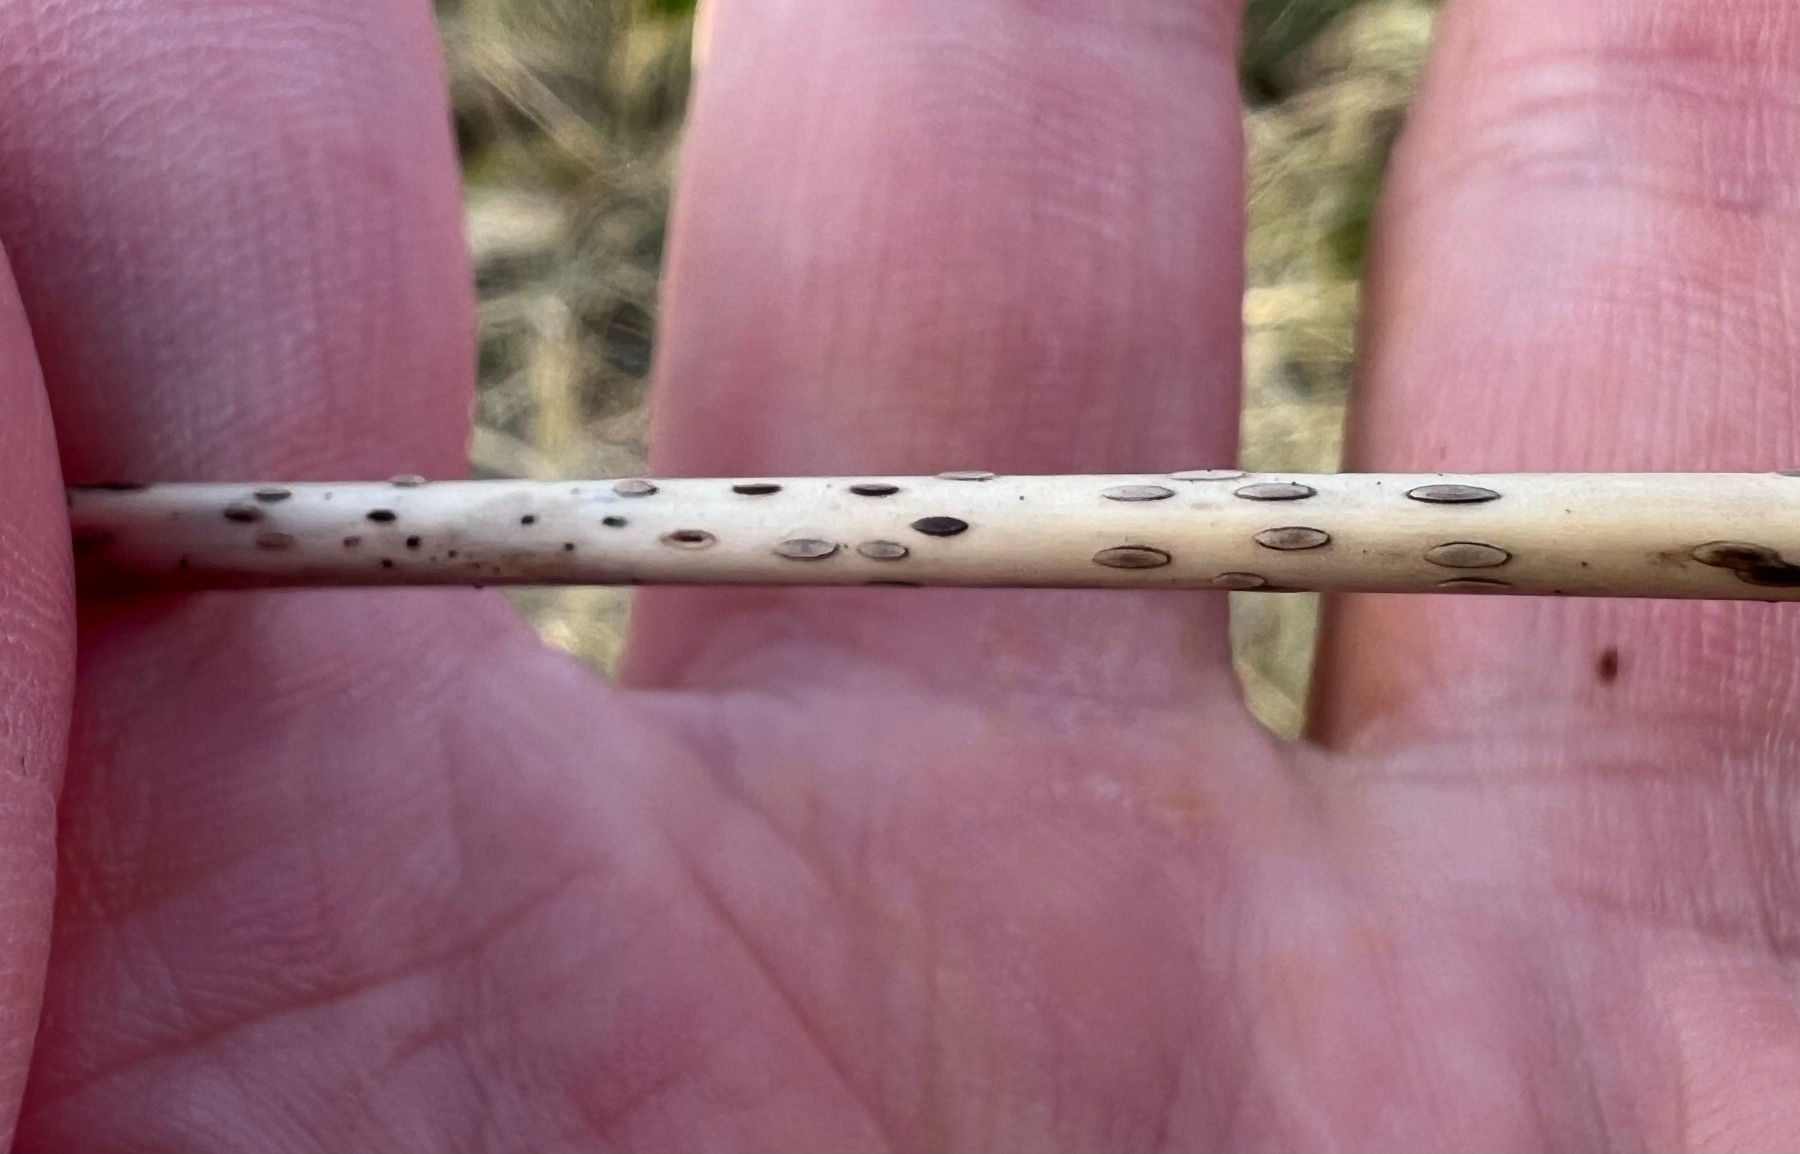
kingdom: Fungi
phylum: Ascomycota
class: Leotiomycetes
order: Helotiales
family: Dermateaceae
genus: Hysterostegiella
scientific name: Hysterostegiella valvata
